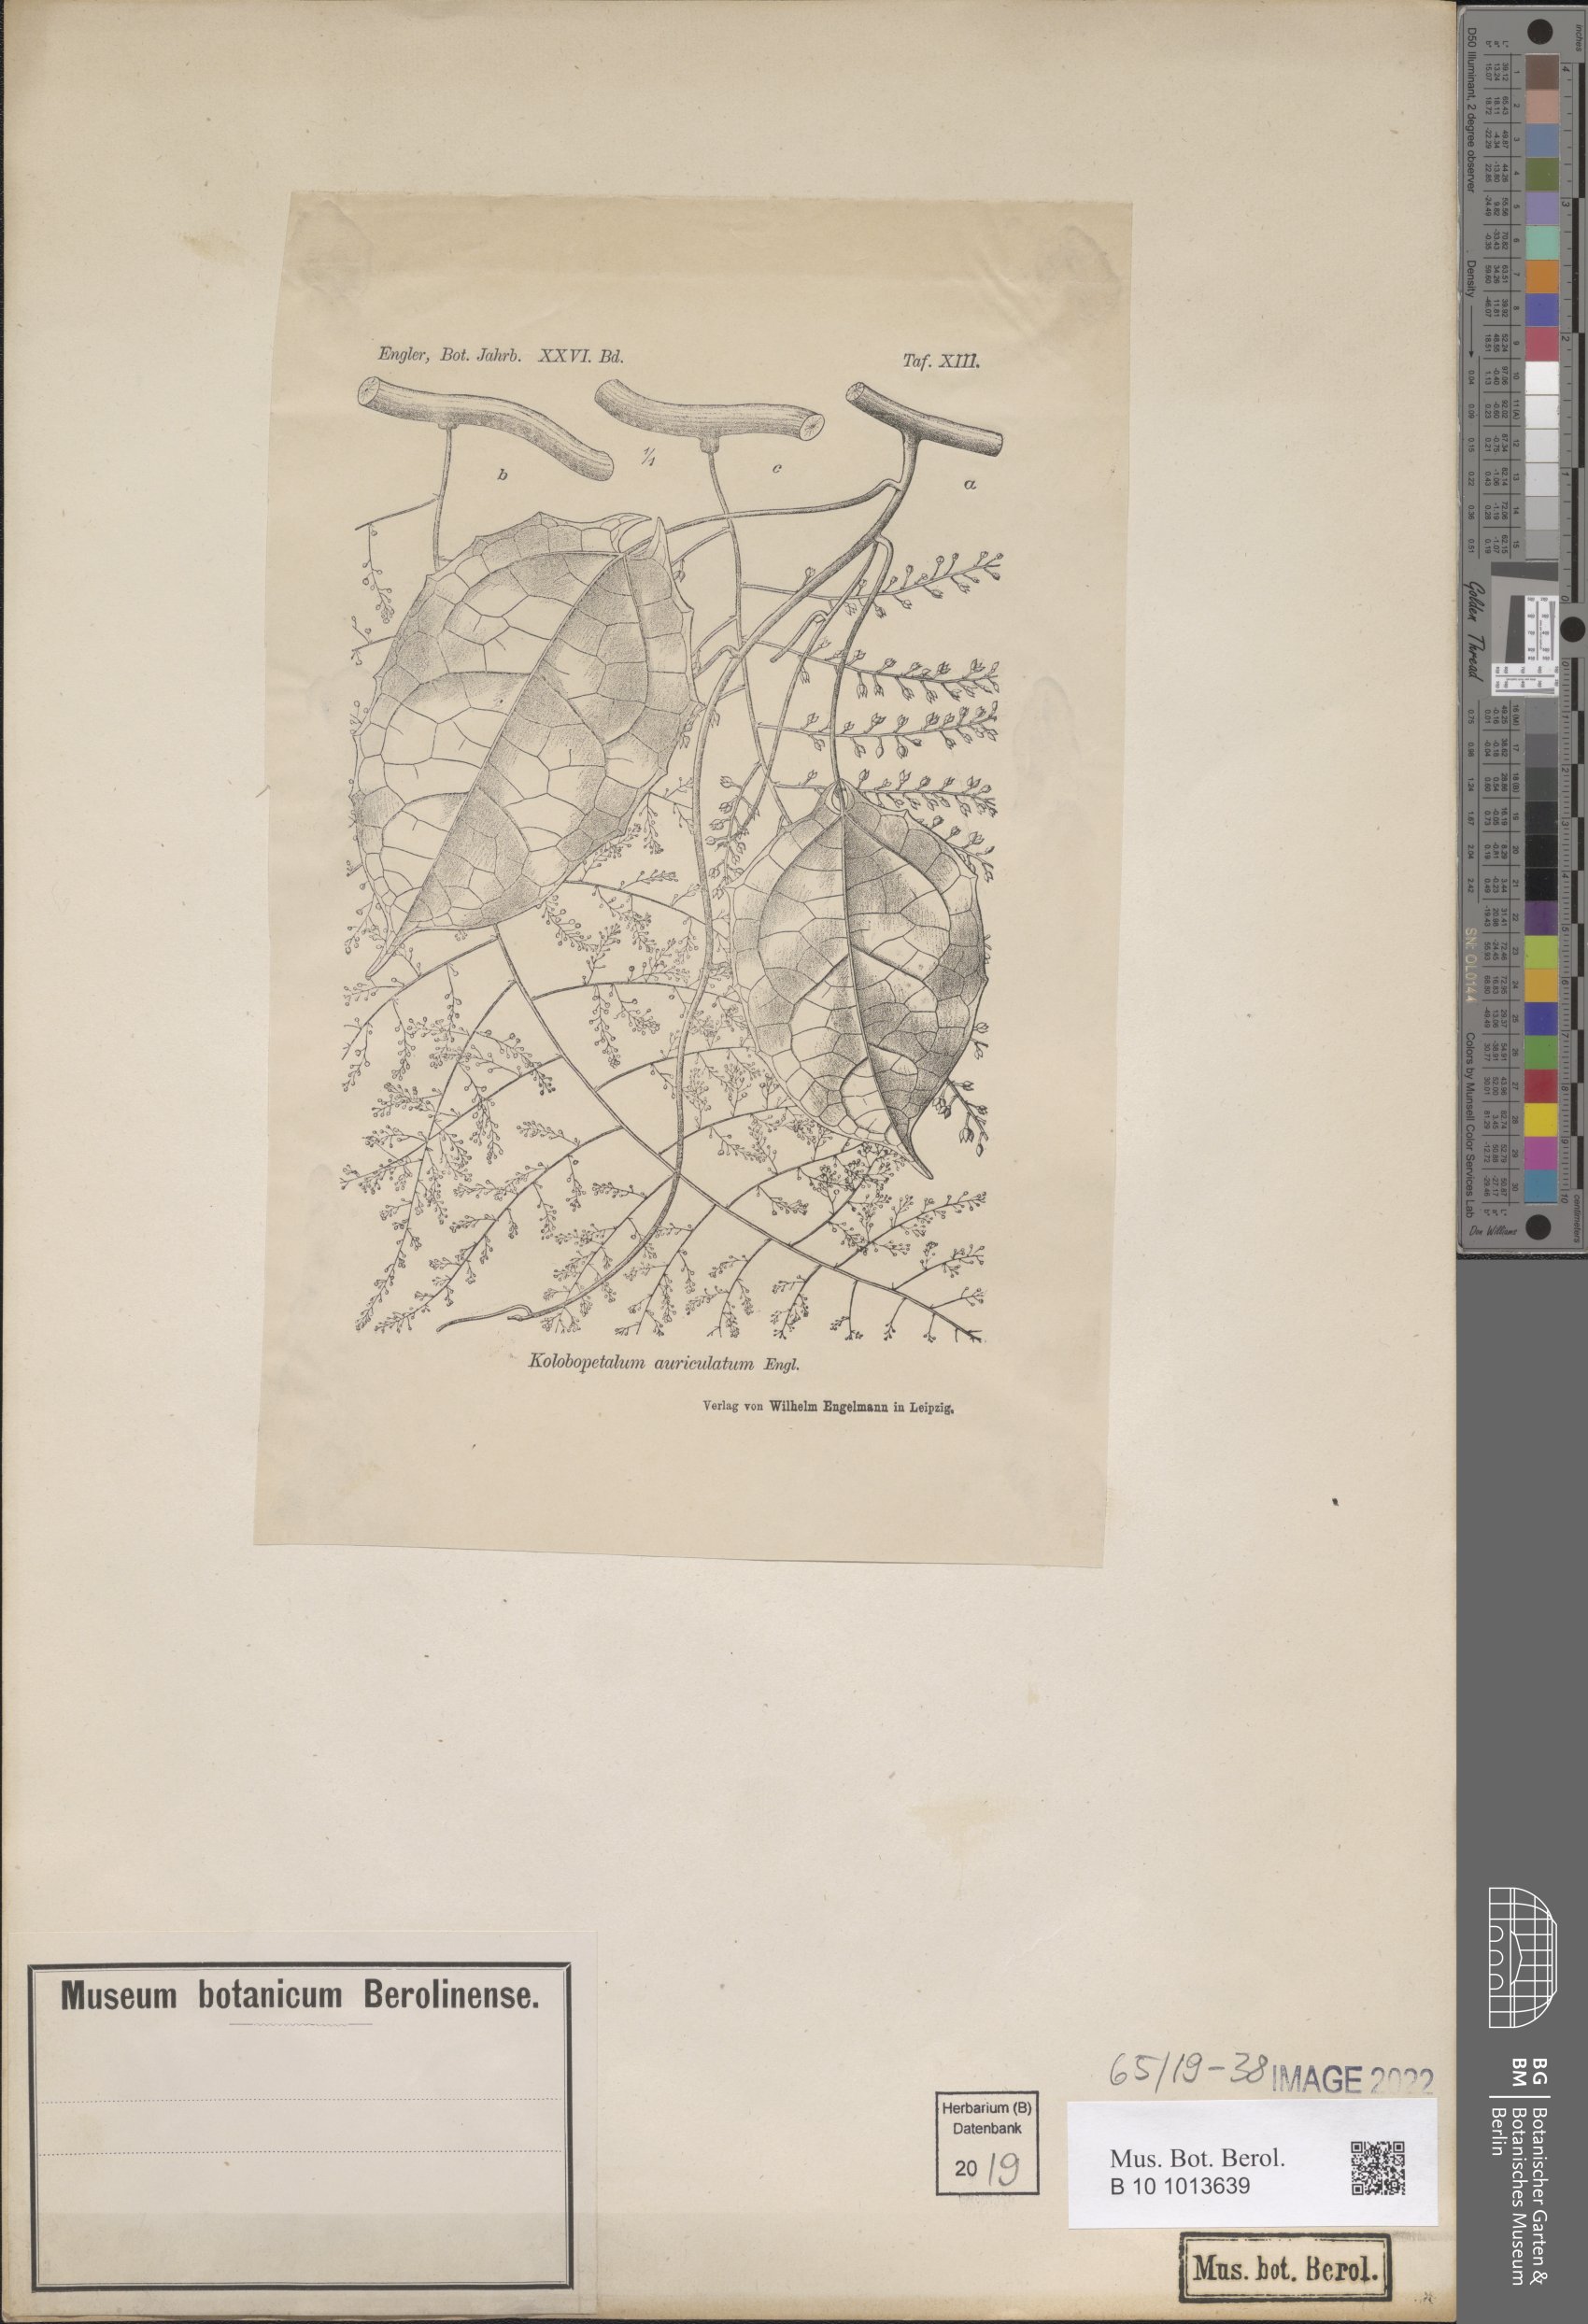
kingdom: Plantae
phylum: Tracheophyta
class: Magnoliopsida
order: Ranunculales
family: Menispermaceae
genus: Kolobopetalum
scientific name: Kolobopetalum auriculatum
